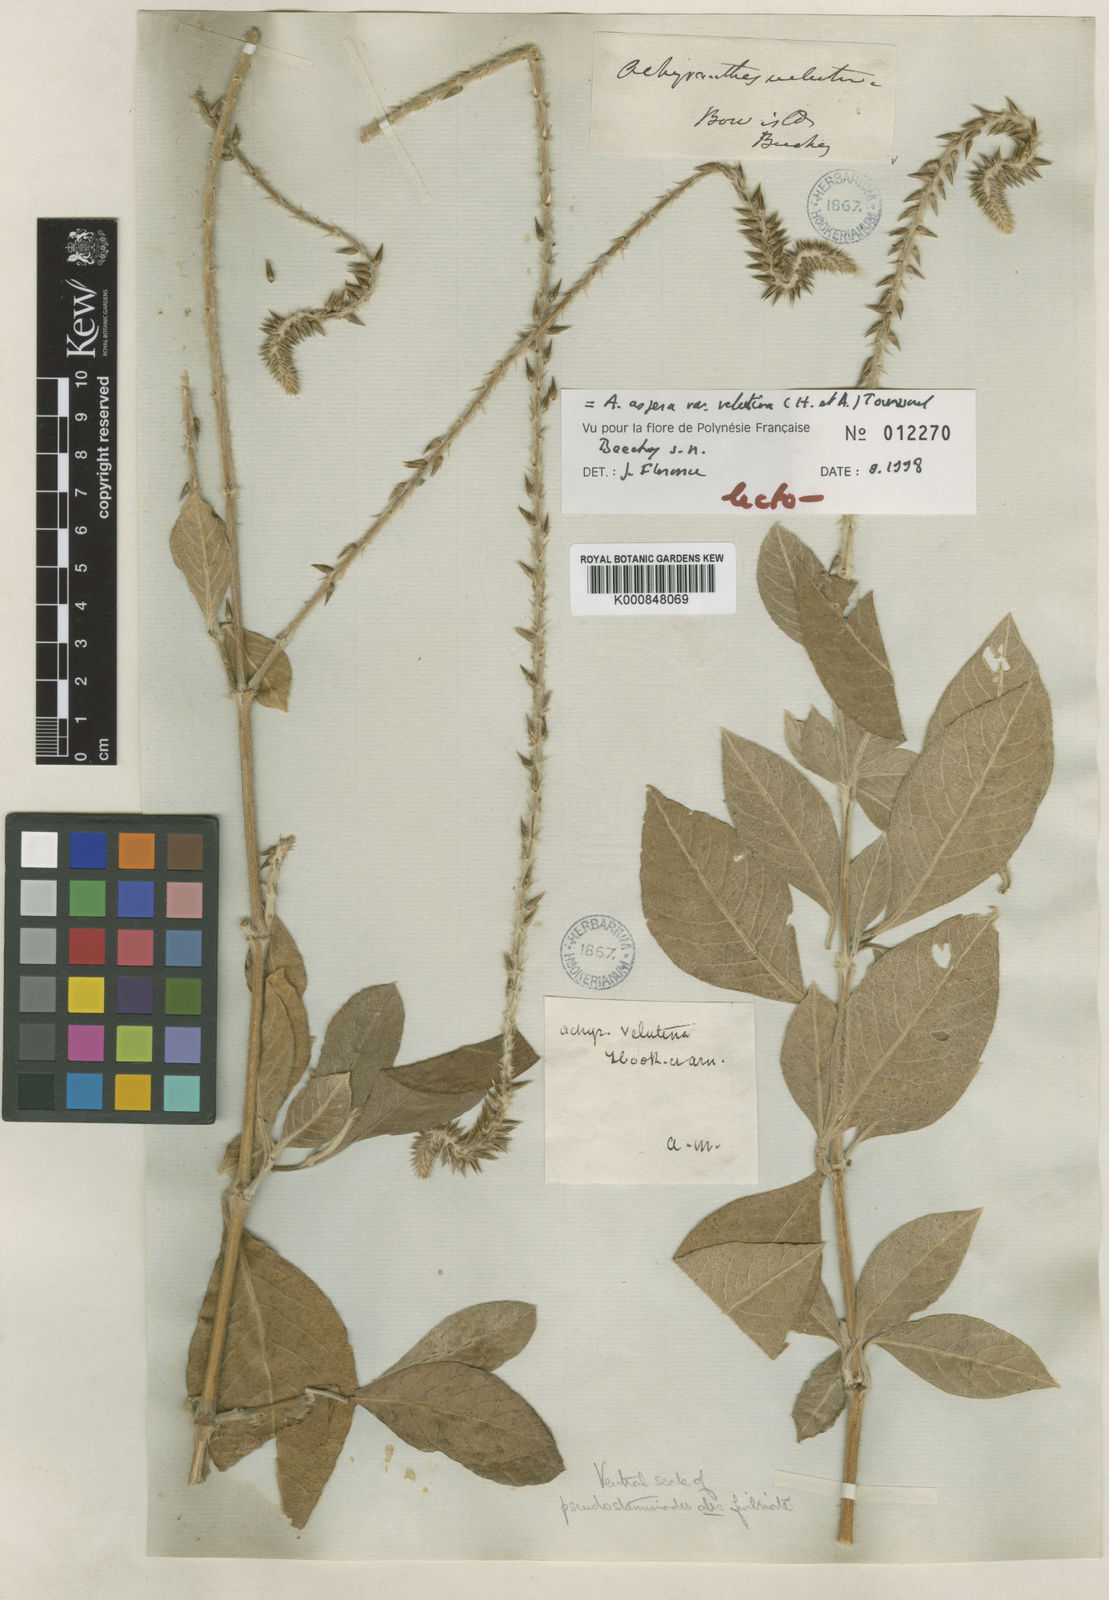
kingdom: Plantae
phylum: Tracheophyta
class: Magnoliopsida
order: Caryophyllales
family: Amaranthaceae
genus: Achyranthes
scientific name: Achyranthes velutina
